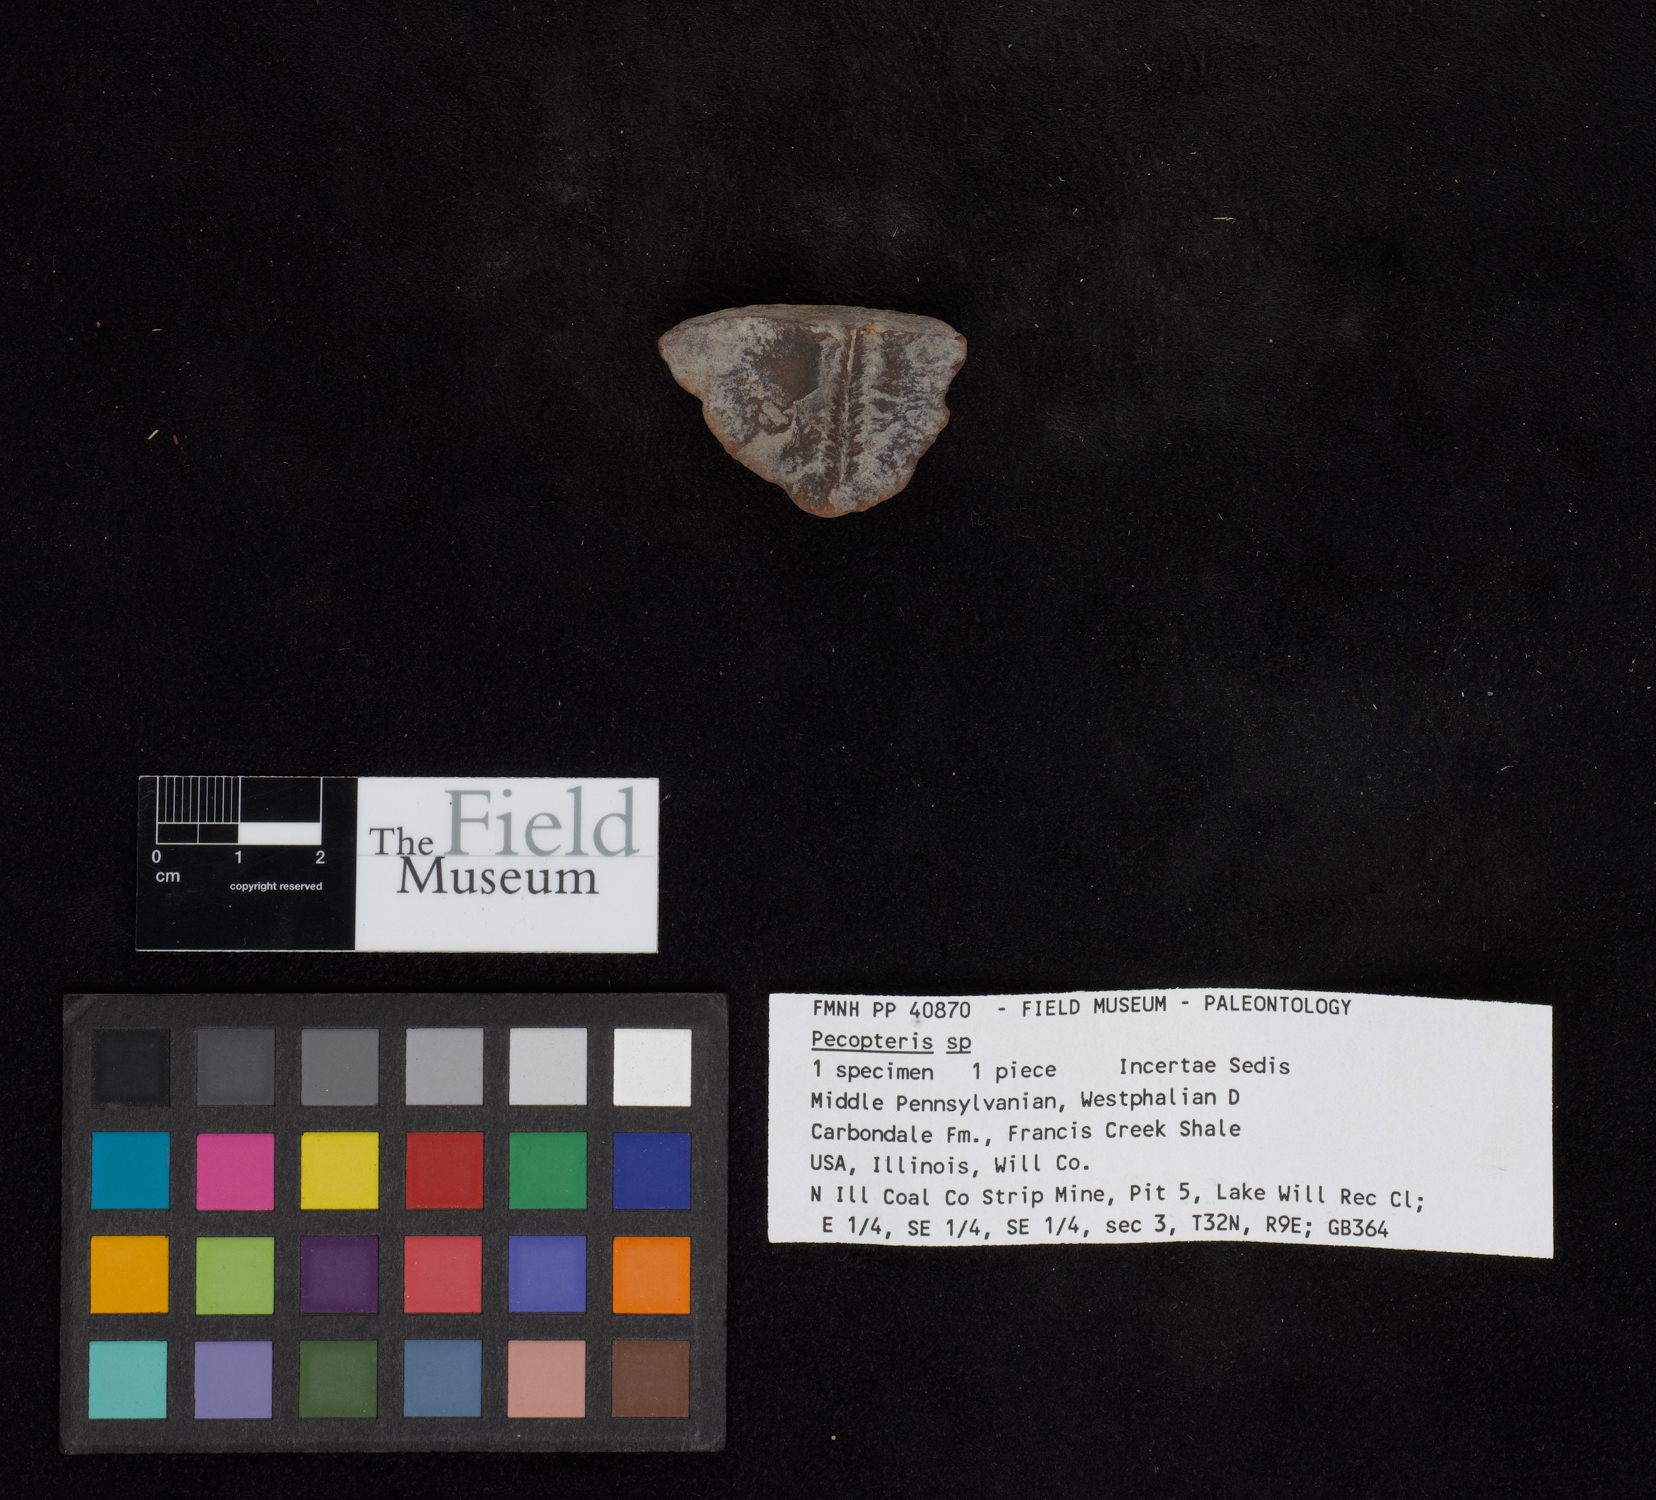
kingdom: Plantae
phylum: Tracheophyta
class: Polypodiopsida
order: Marattiales
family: Asterothecaceae
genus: Pecopteris
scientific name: Pecopteris
